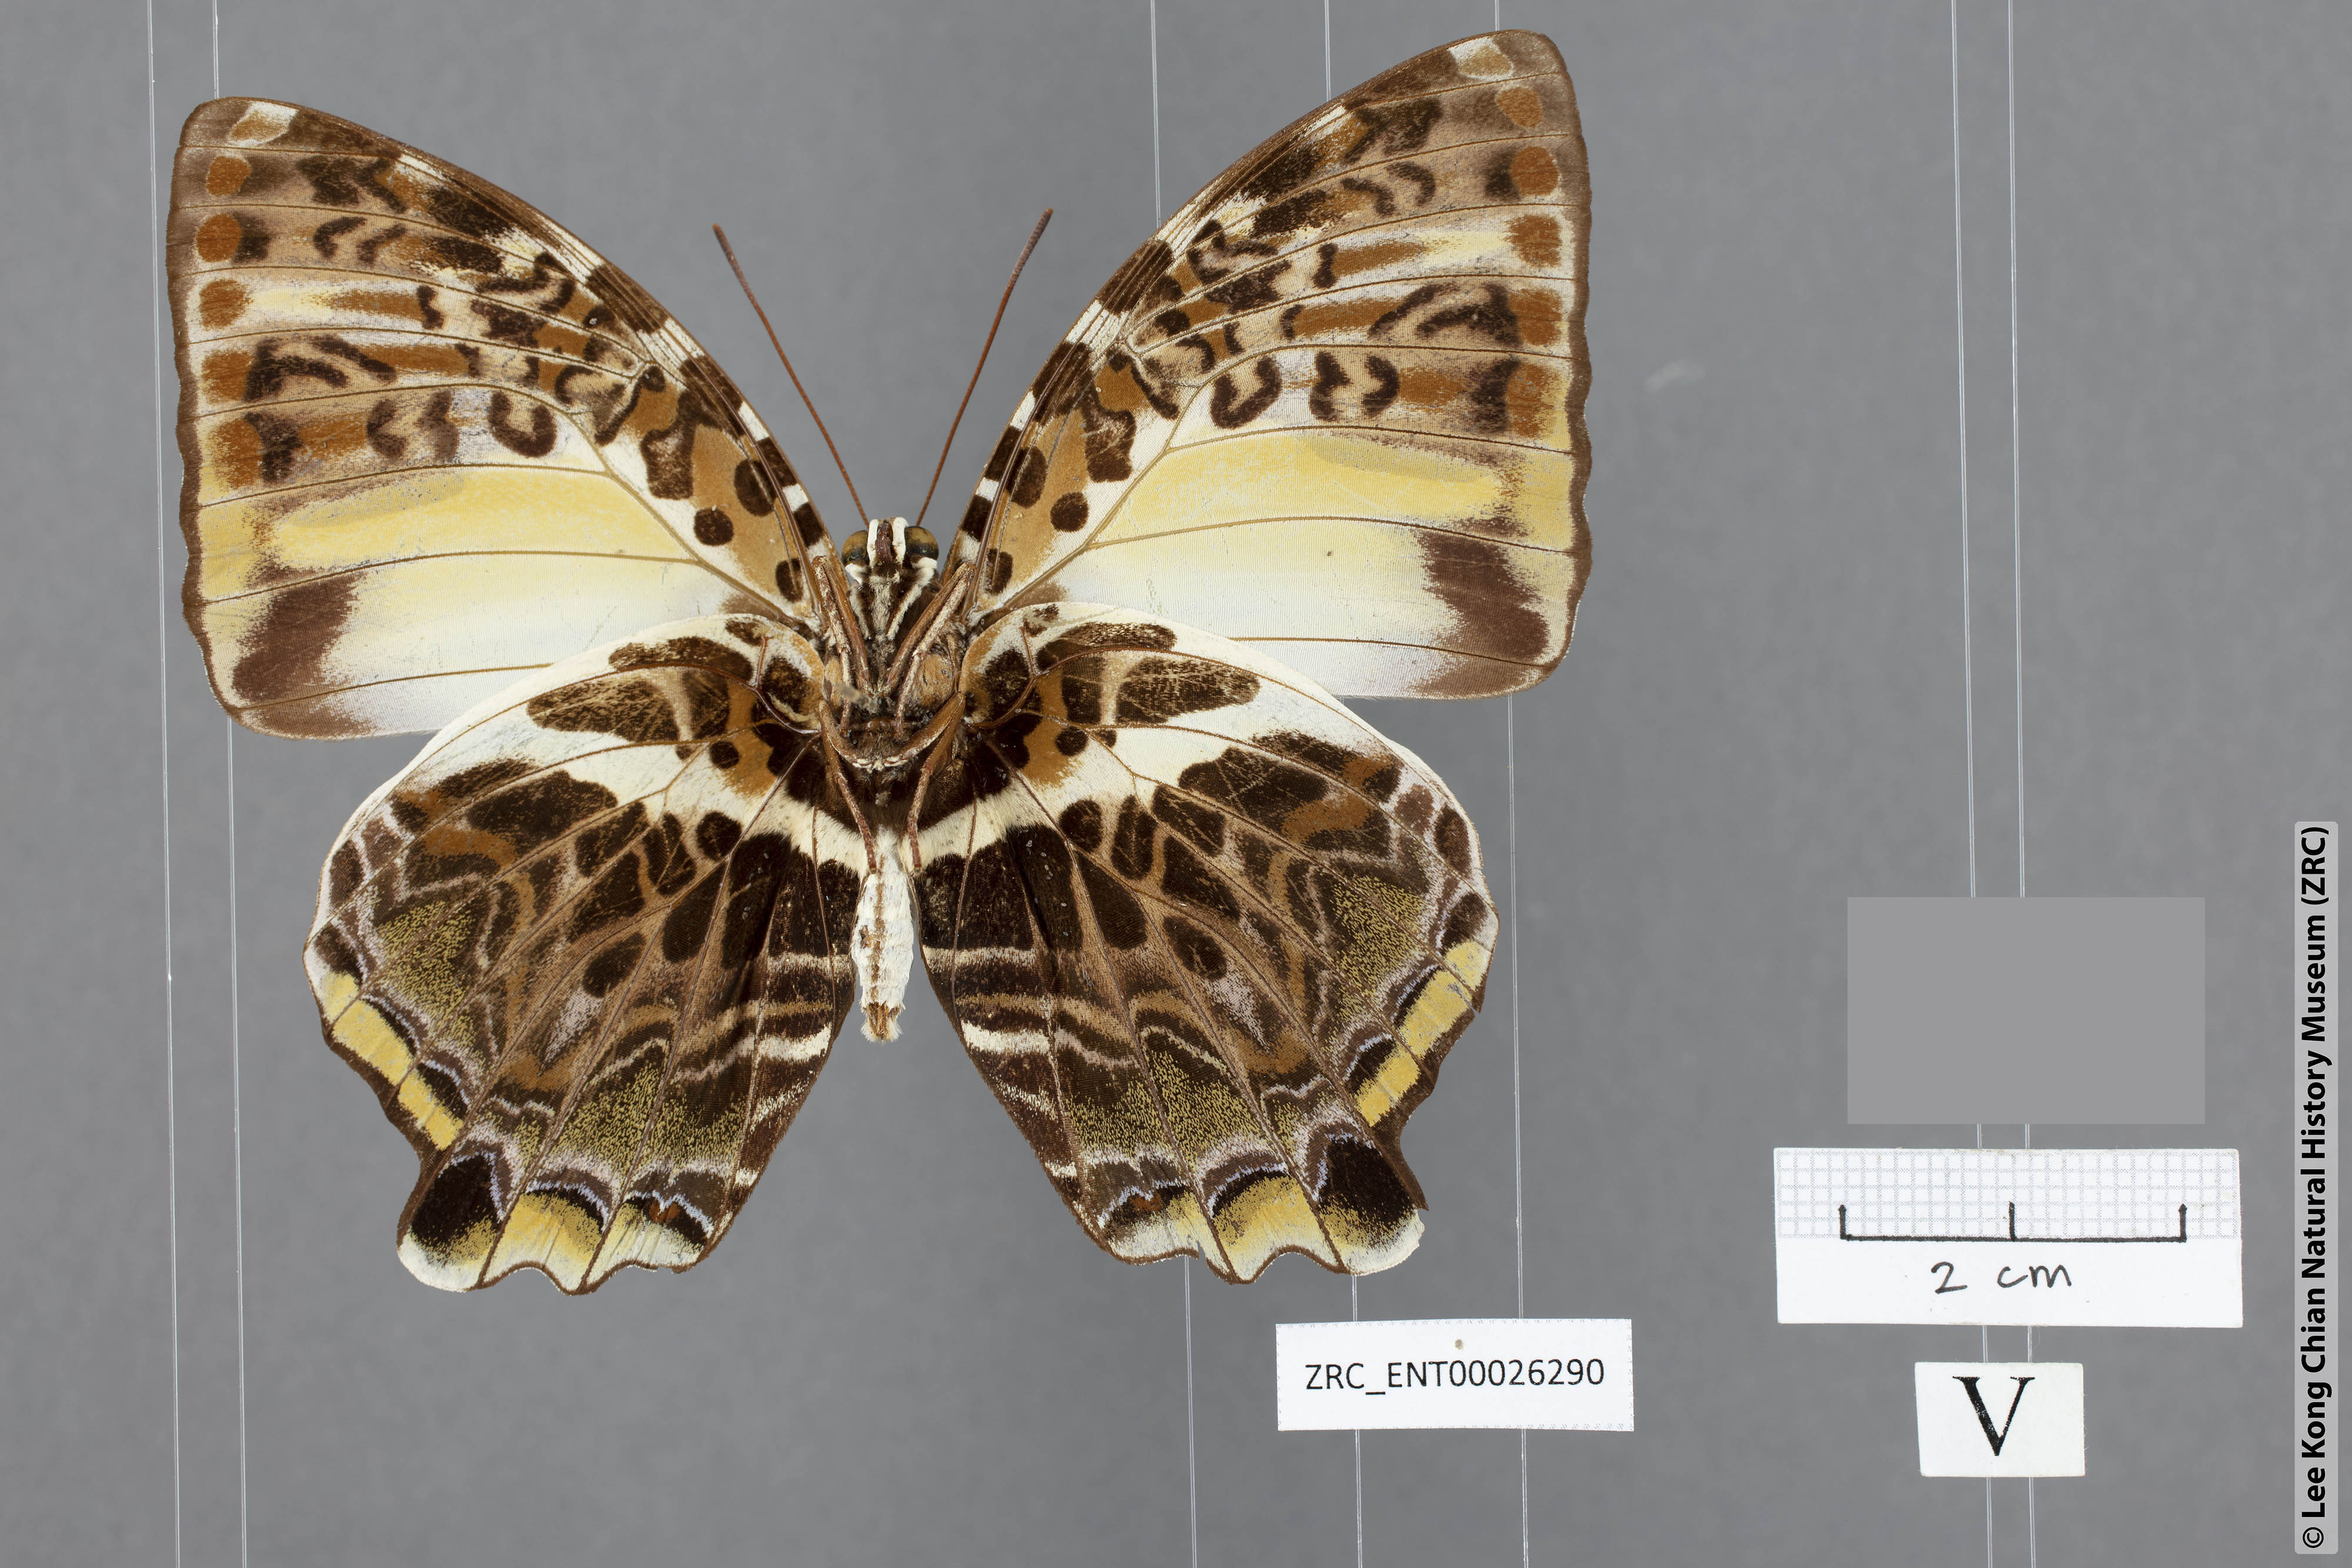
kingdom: Animalia
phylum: Arthropoda
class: Insecta
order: Lepidoptera
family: Nymphalidae
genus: Prothoe
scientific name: Prothoe Agatasa calydonia
